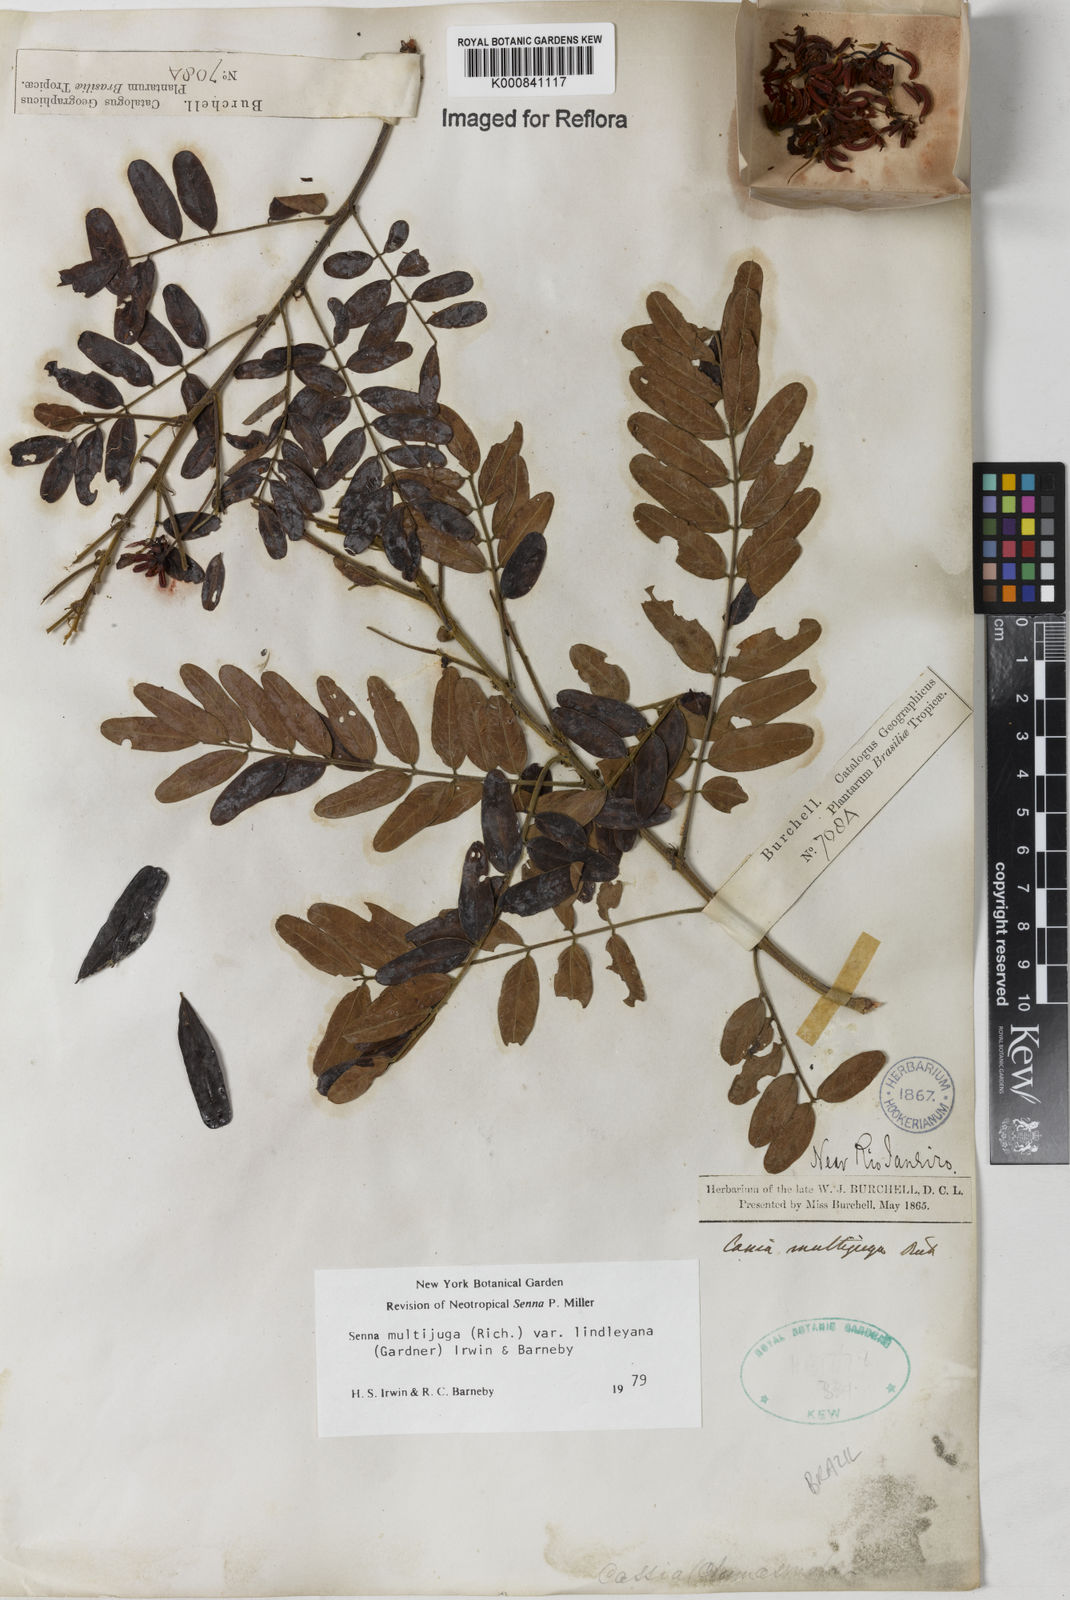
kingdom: Plantae
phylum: Tracheophyta
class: Magnoliopsida
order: Fabales
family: Fabaceae
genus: Senna
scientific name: Senna multijuga
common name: False sicklepod
